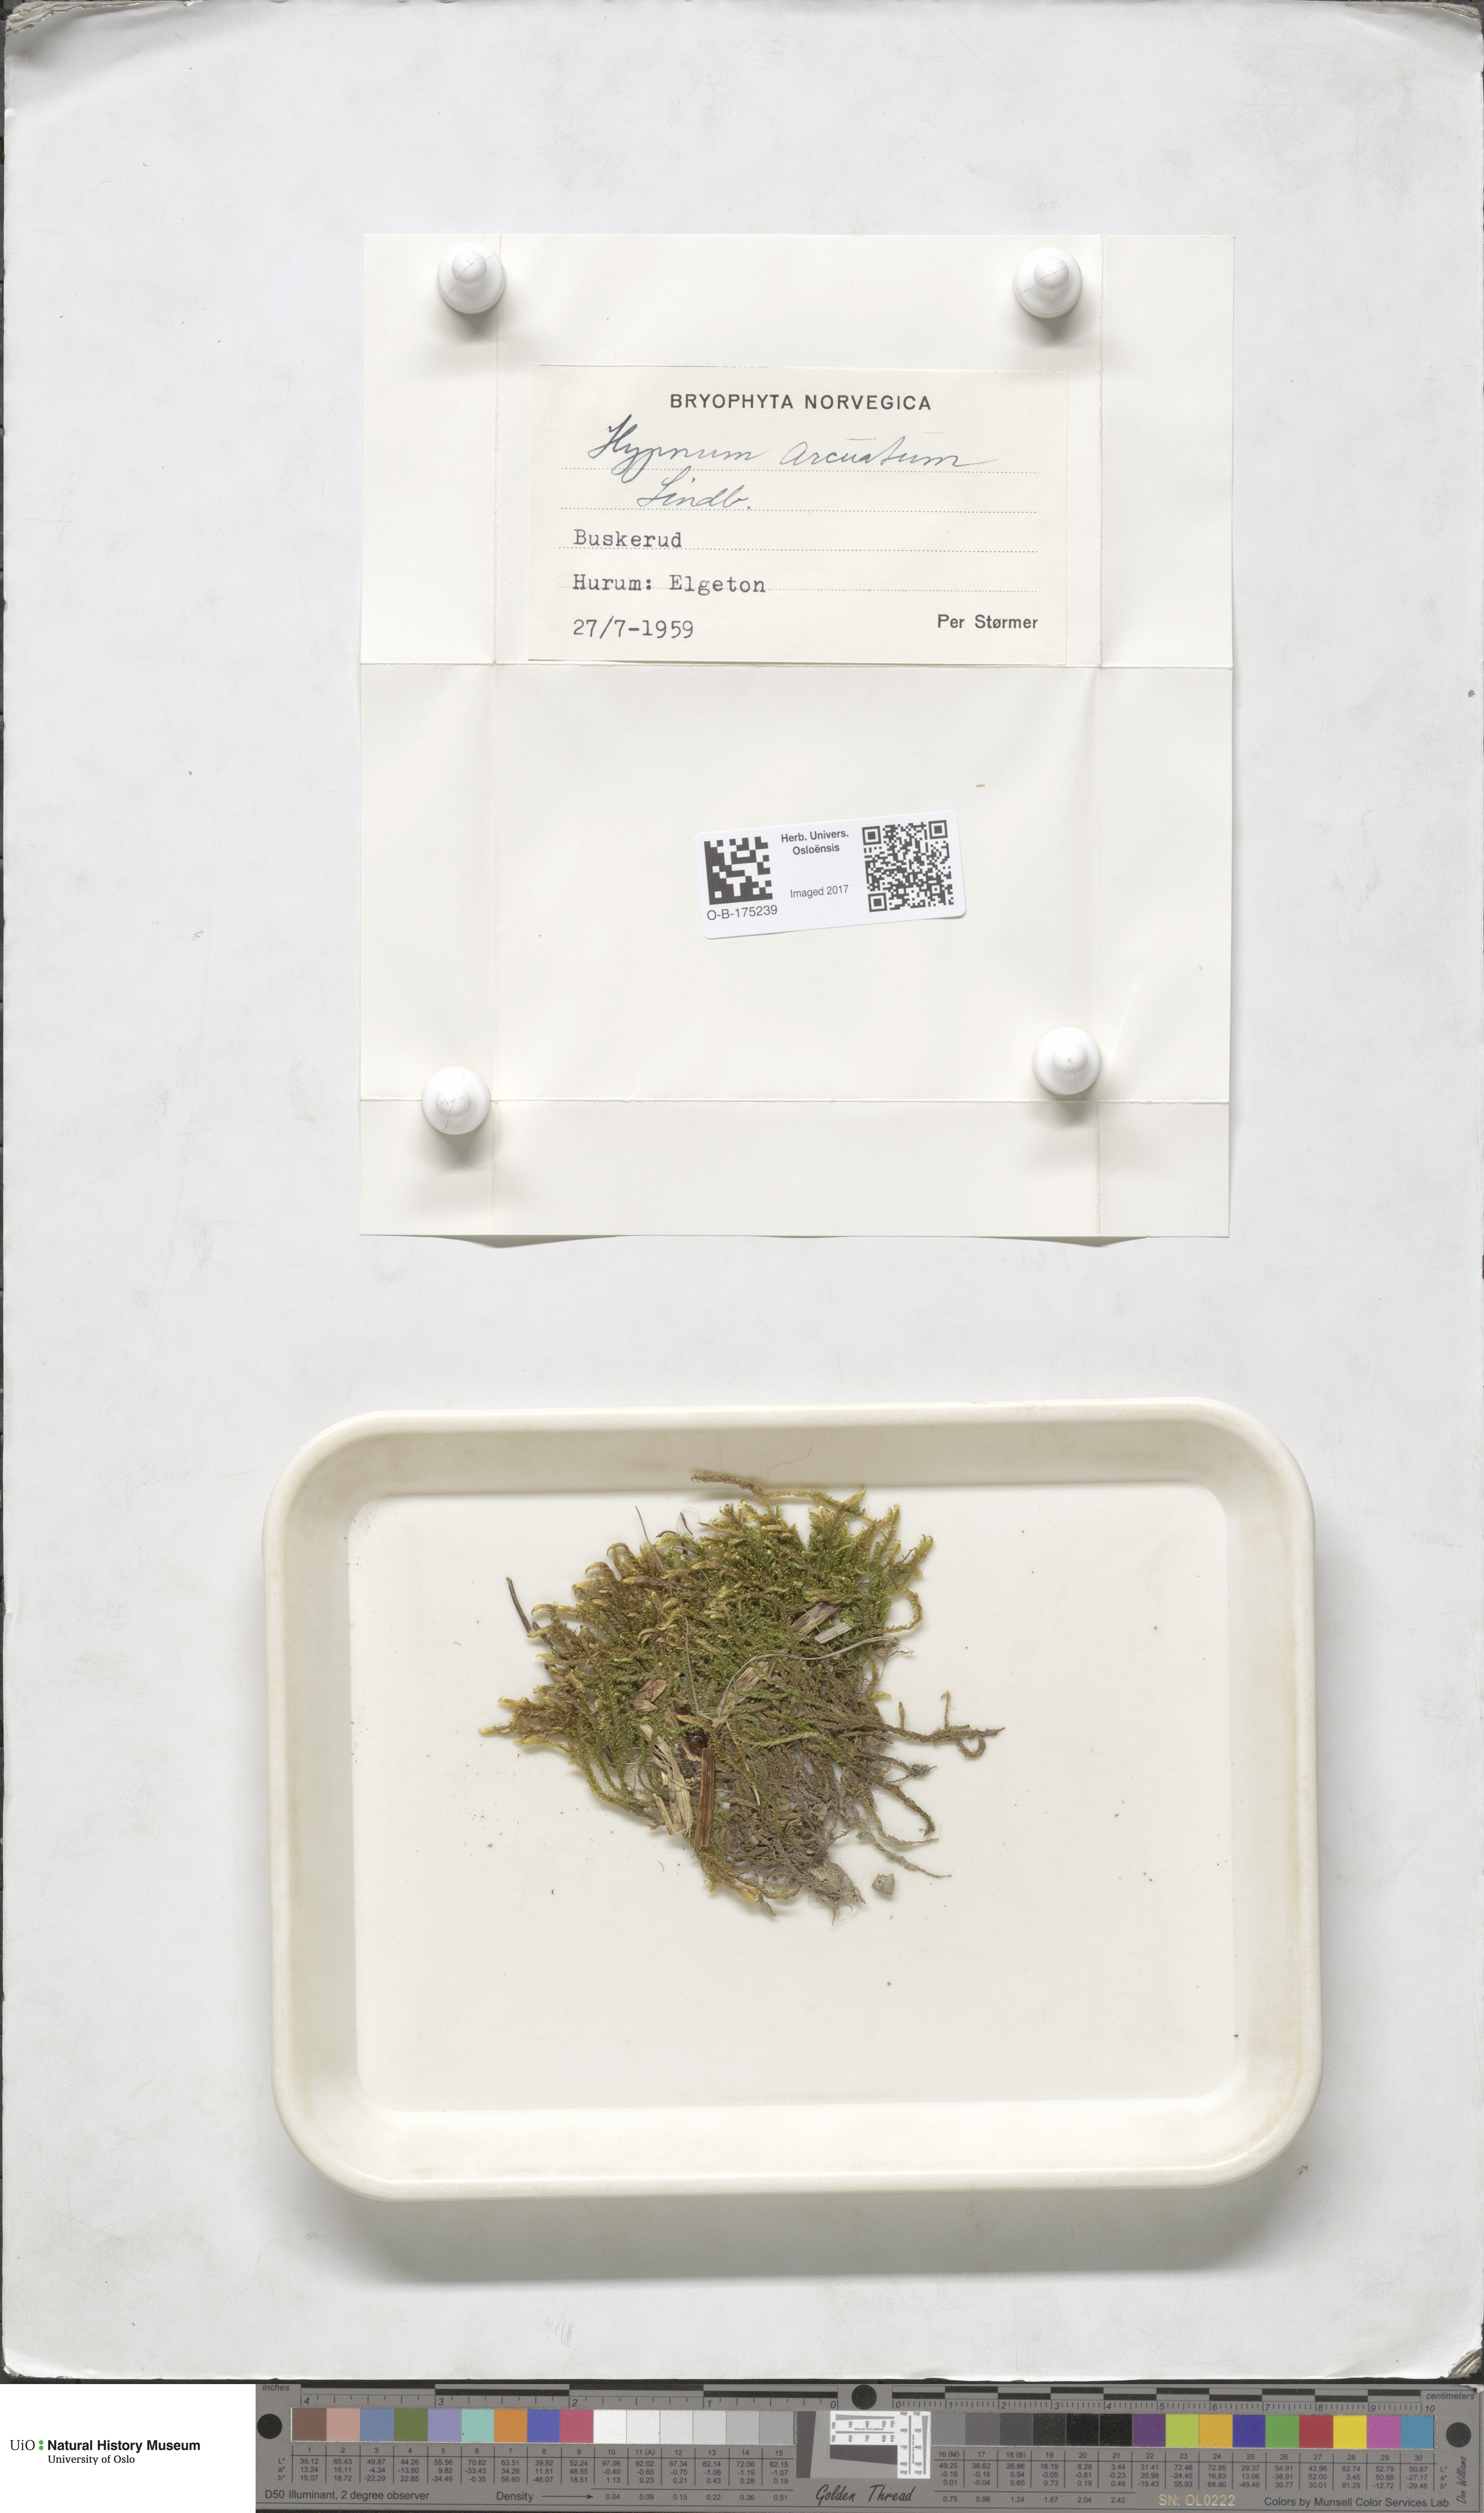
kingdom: Plantae
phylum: Bryophyta
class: Bryopsida
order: Hypnales
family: Pylaisiaceae
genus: Calliergonella
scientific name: Calliergonella lindbergii
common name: Lindberg's plait-moss
